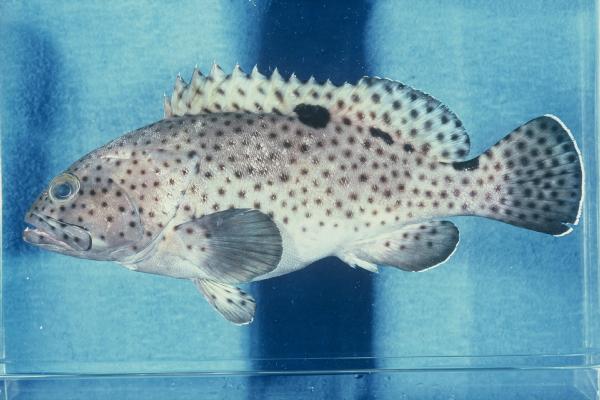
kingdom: Animalia
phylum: Chordata
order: Perciformes
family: Serranidae
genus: Epinephelus
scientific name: Epinephelus howlandi
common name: Blacksaddle grouper
